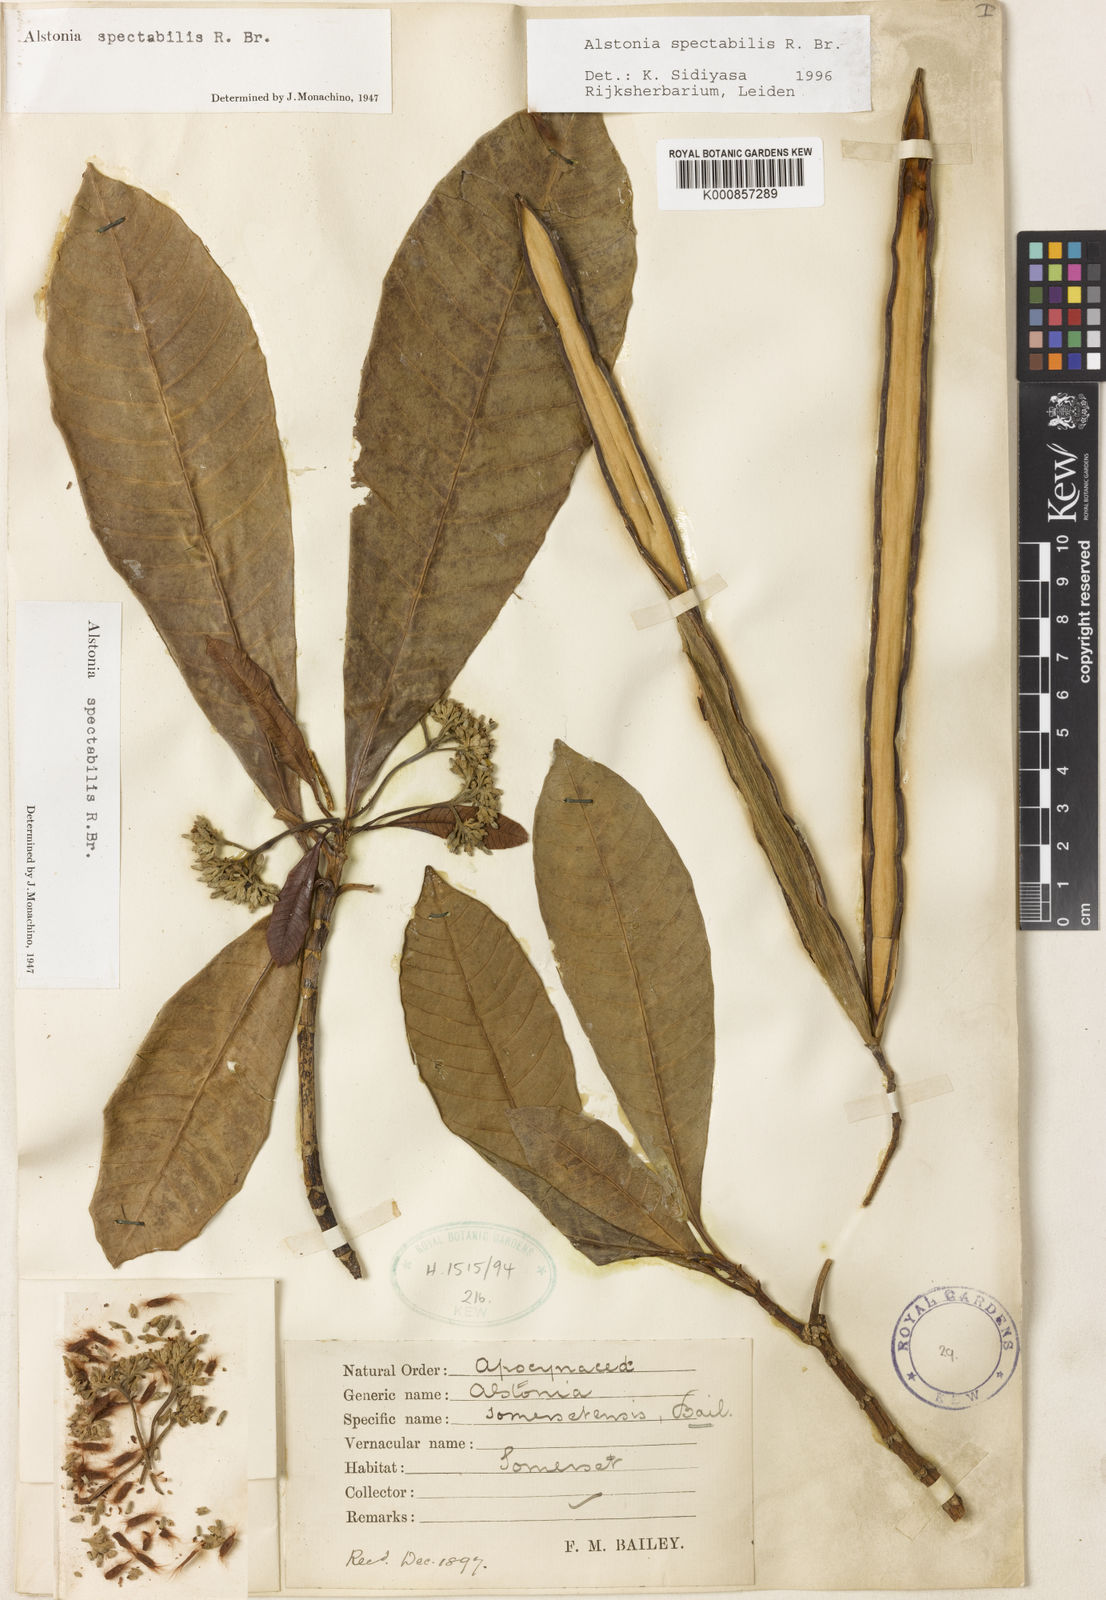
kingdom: Plantae
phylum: Tracheophyta
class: Magnoliopsida
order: Gentianales
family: Apocynaceae
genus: Alstonia
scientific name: Alstonia spectabilis
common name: Milky yellowwood
